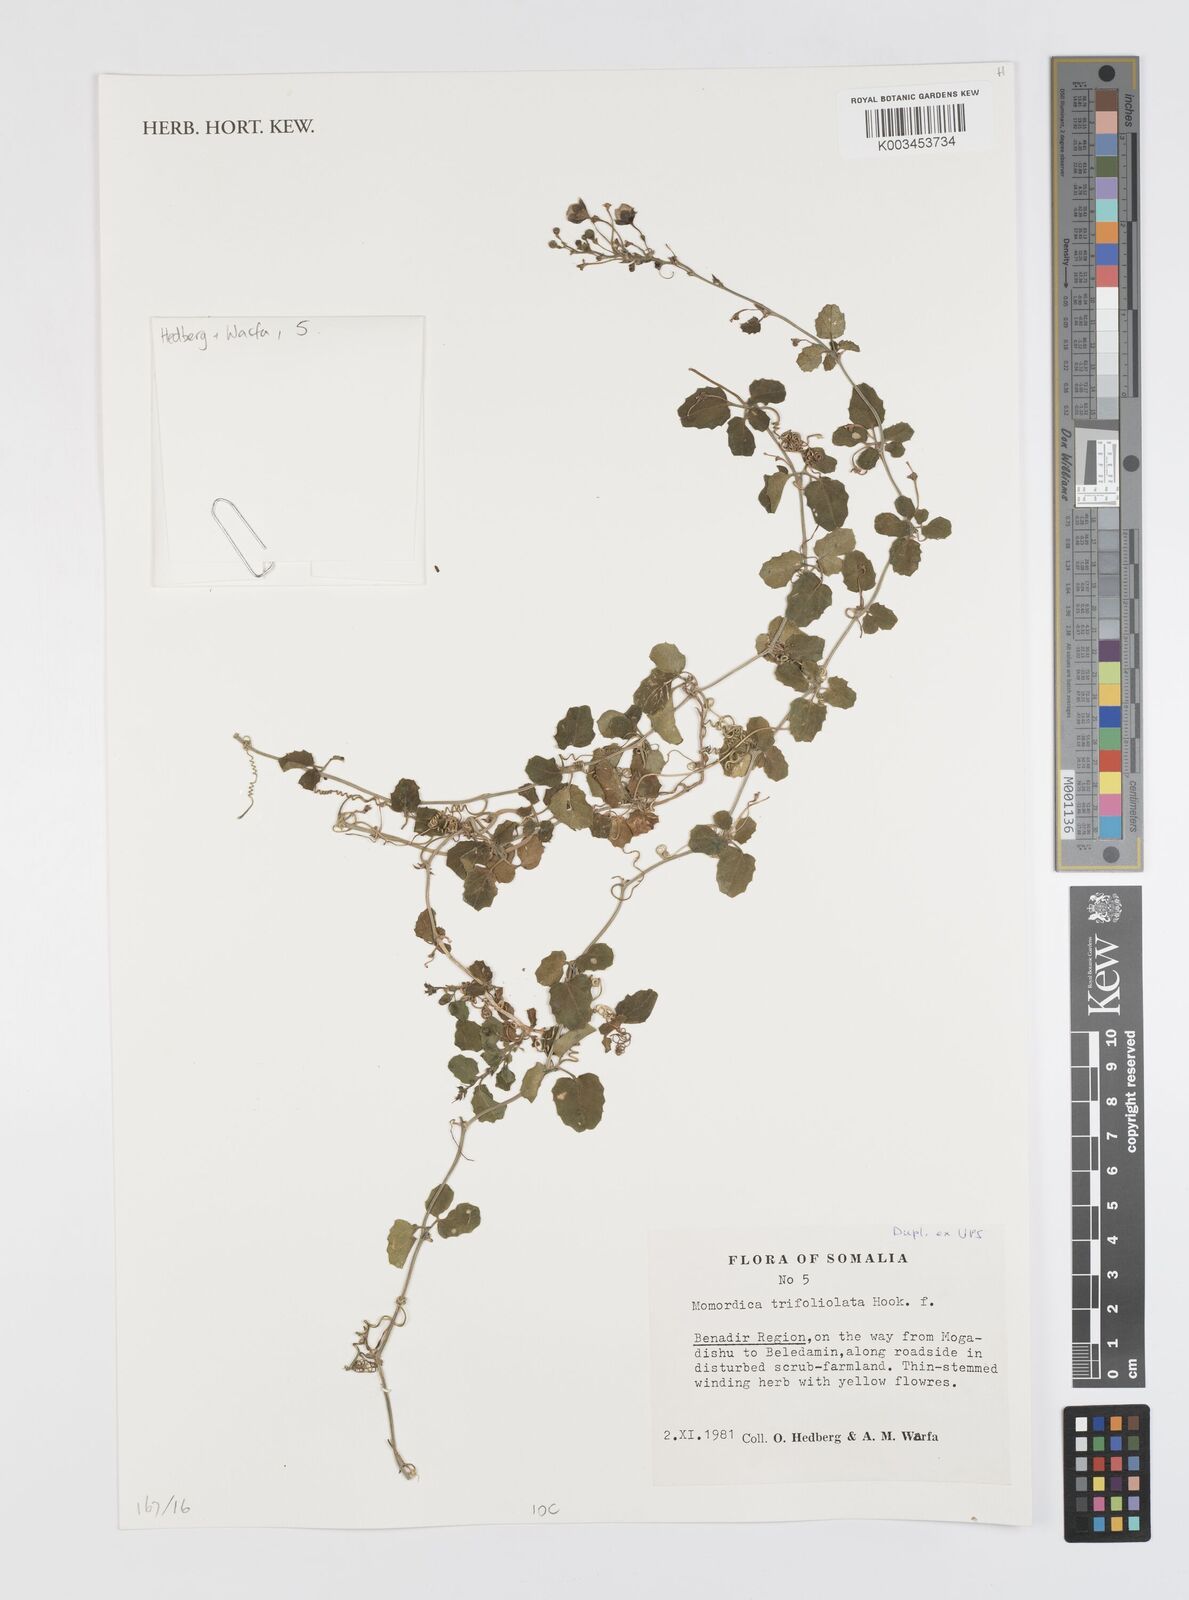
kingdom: Plantae
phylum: Tracheophyta
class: Magnoliopsida
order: Cucurbitales
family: Cucurbitaceae
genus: Momordica
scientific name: Momordica trifolia
